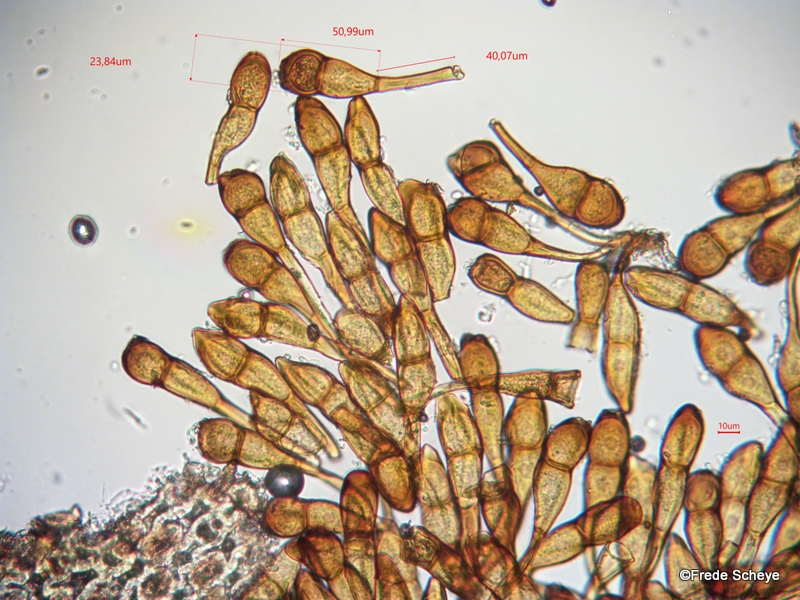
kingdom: Fungi
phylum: Basidiomycota
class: Pucciniomycetes
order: Pucciniales
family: Pucciniaceae
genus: Puccinia
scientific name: Puccinia magnusiana
